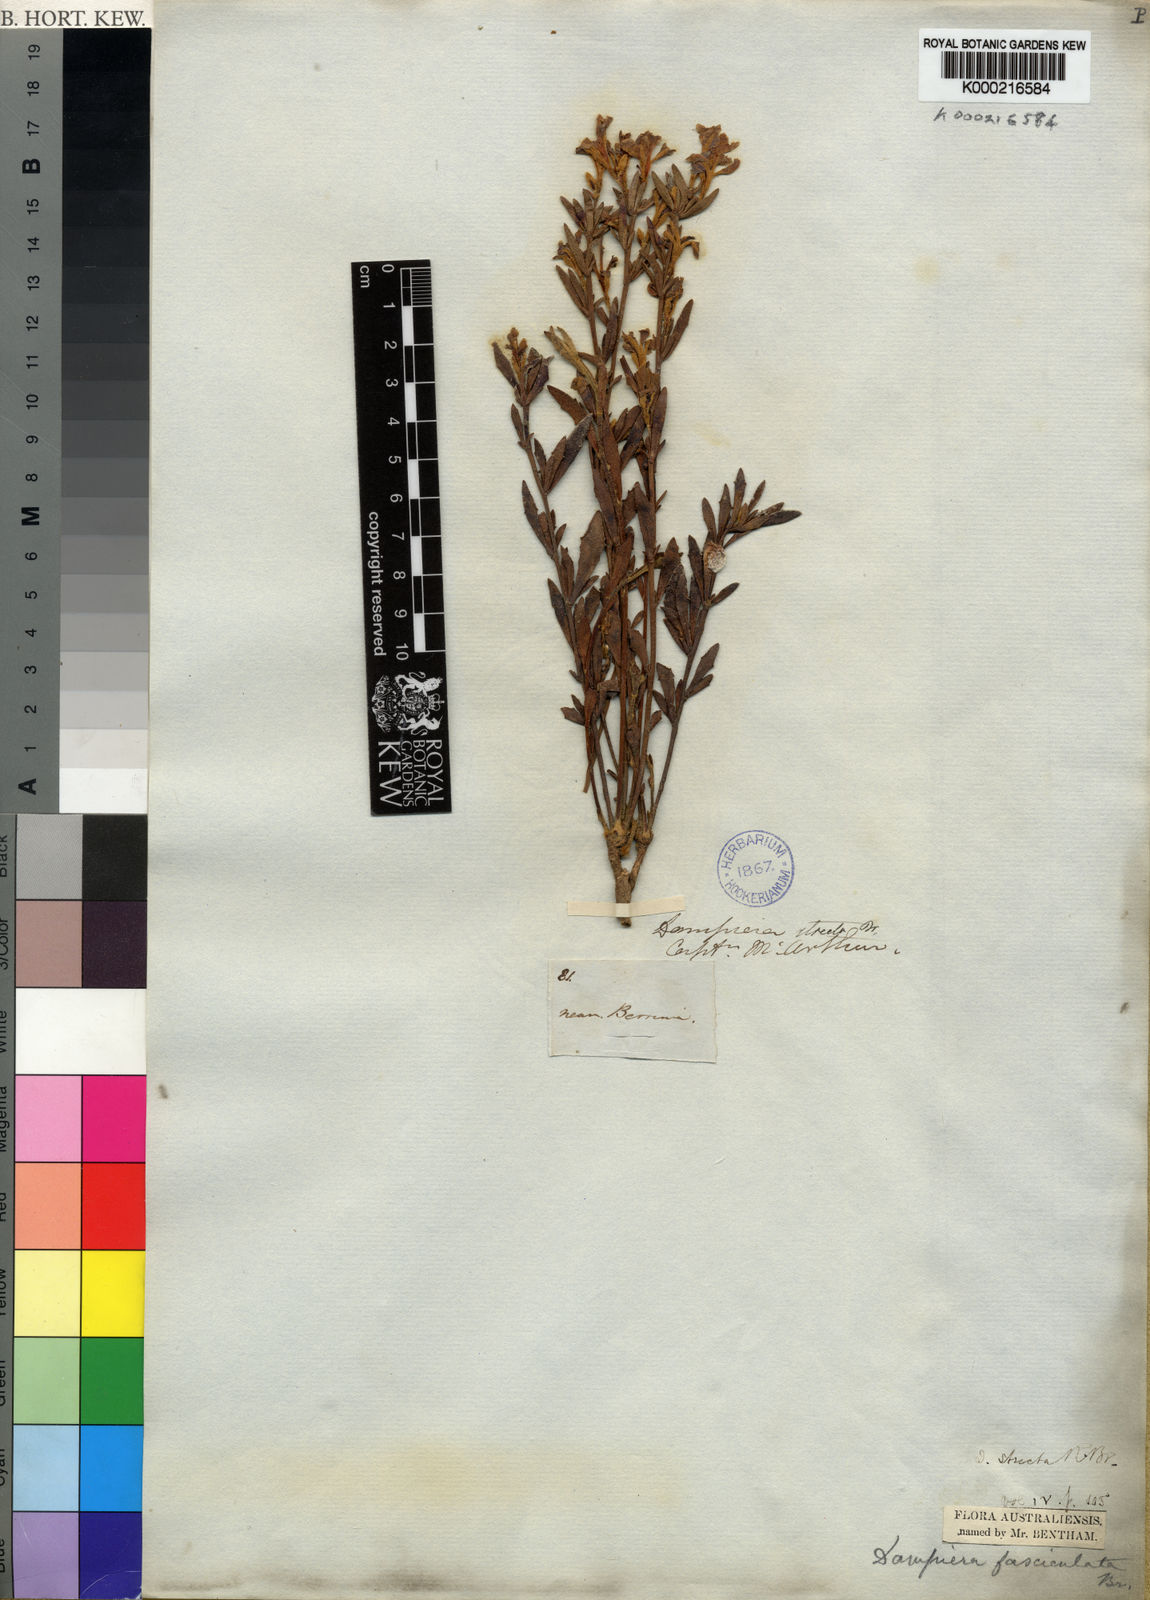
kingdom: Plantae
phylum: Tracheophyta
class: Magnoliopsida
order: Asterales
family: Goodeniaceae
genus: Dampiera
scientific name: Dampiera stricta
